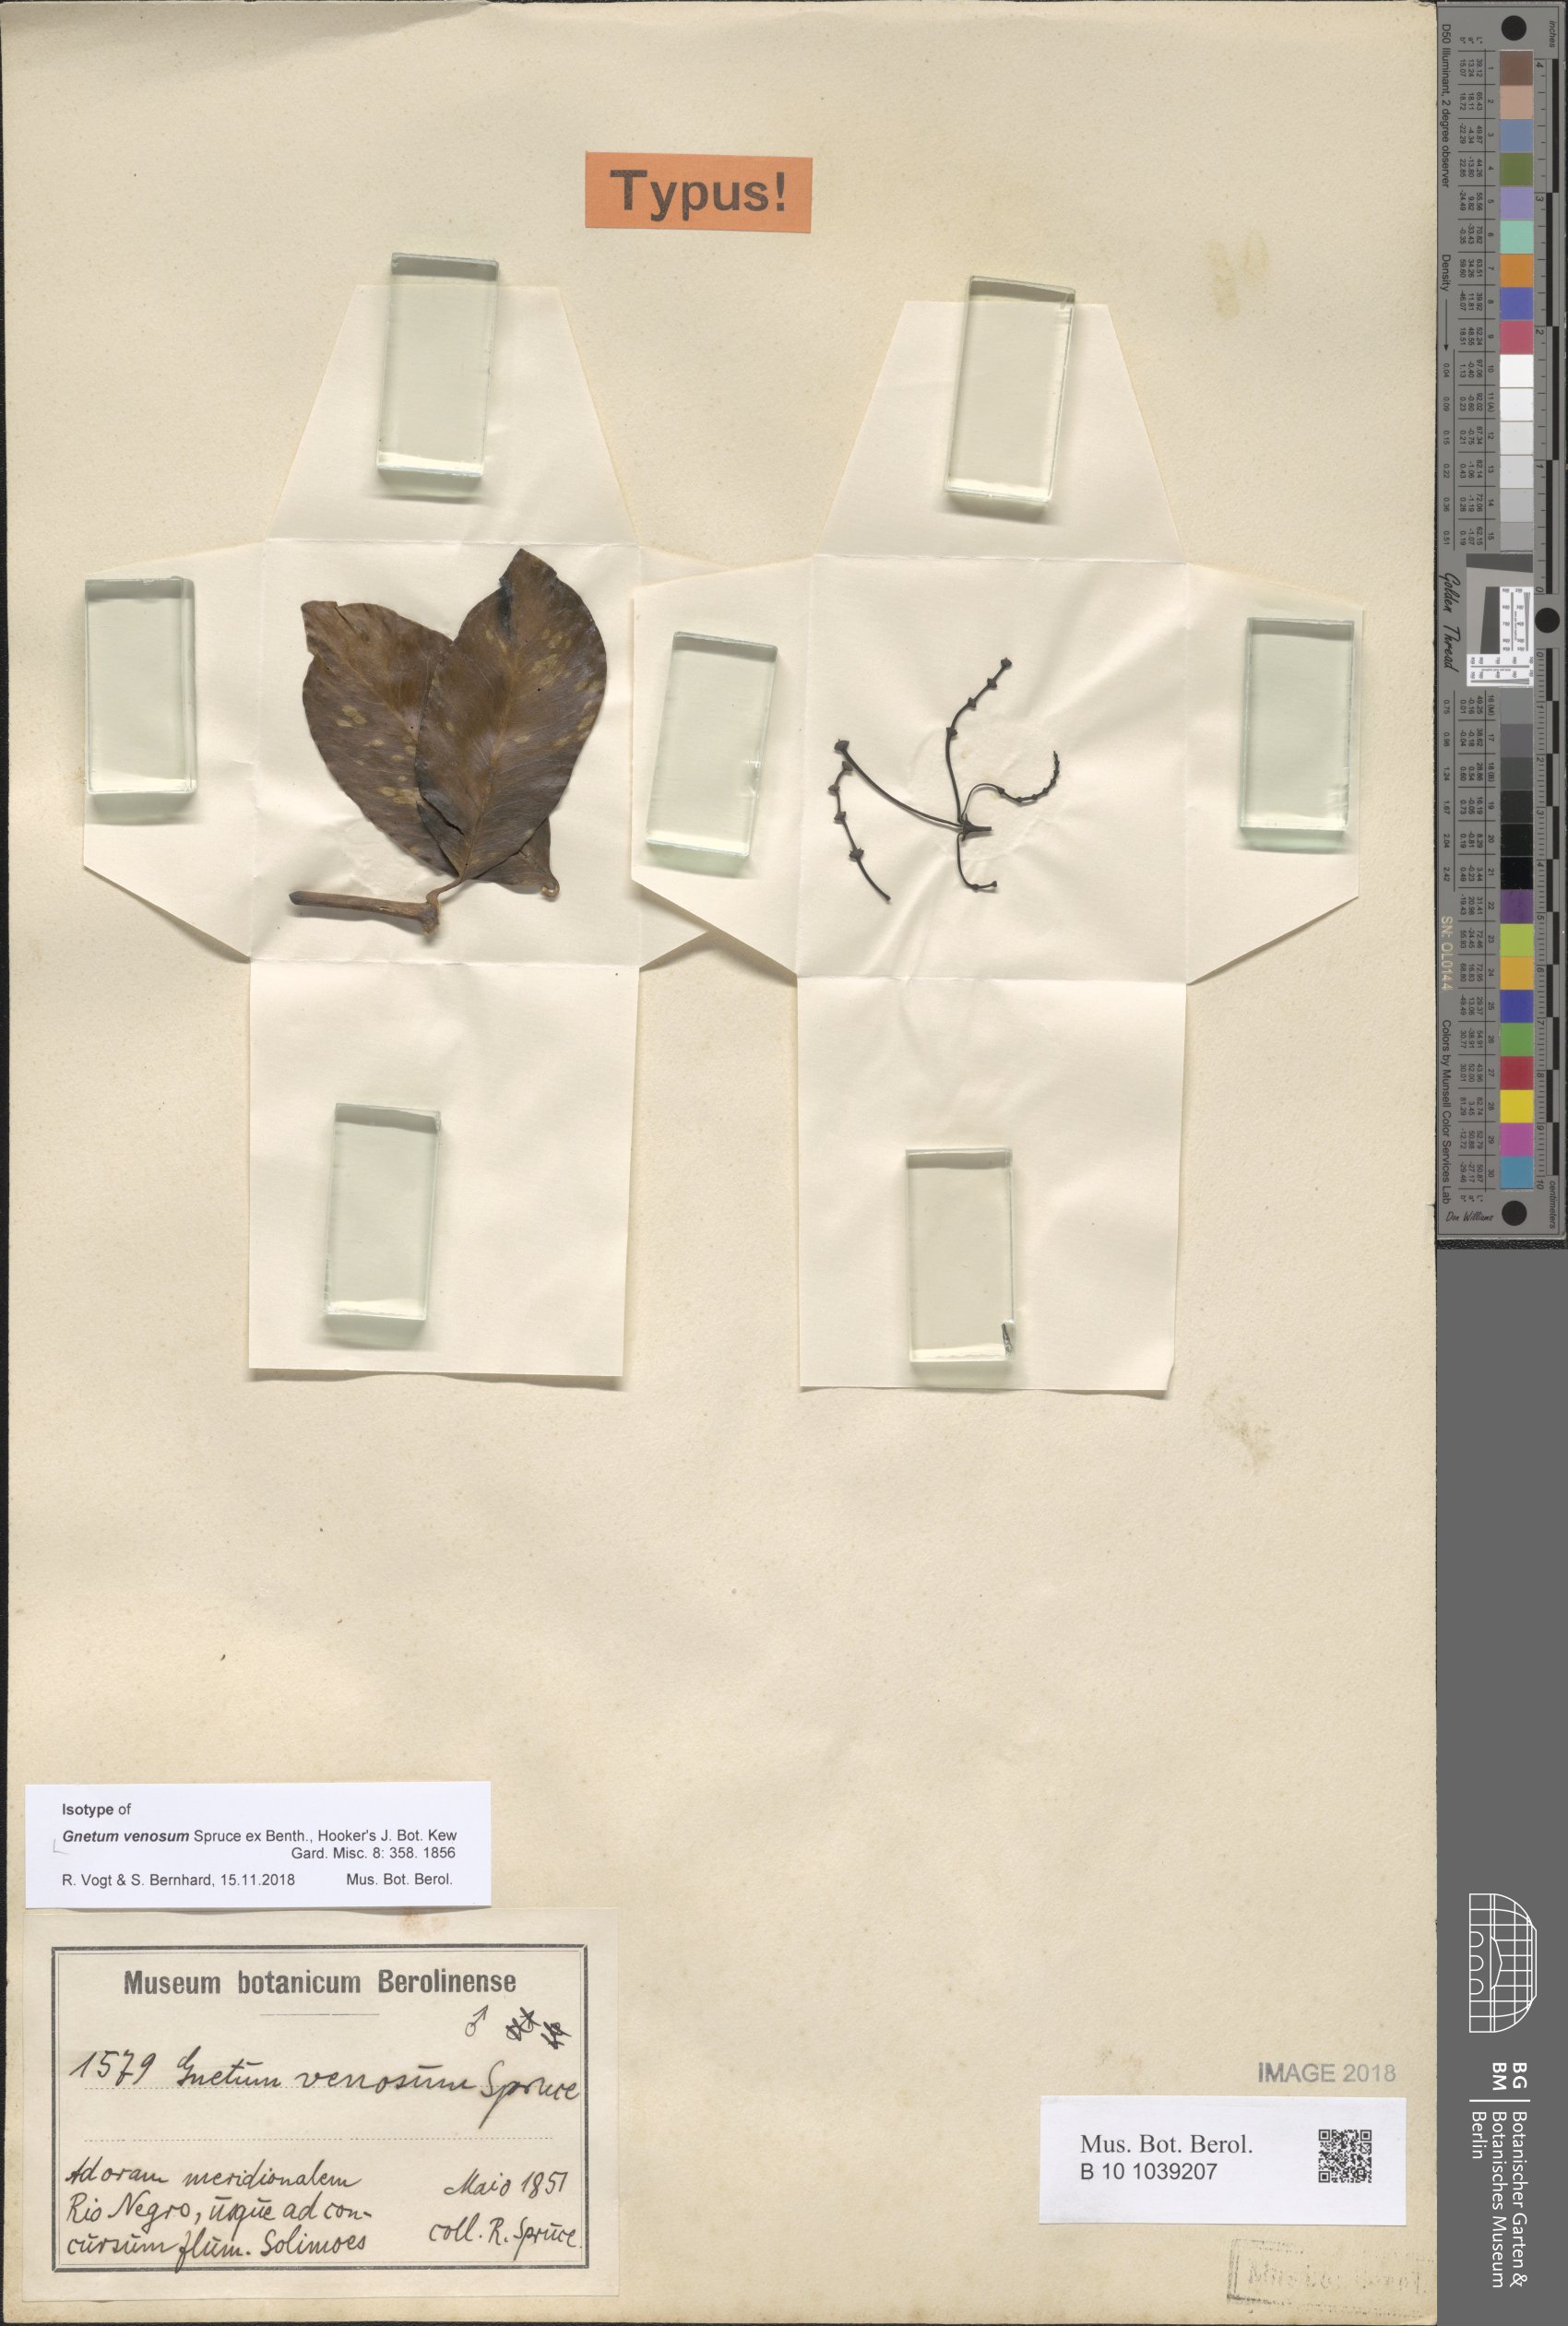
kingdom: Plantae
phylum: Tracheophyta
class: Gnetopsida
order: Gnetales
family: Gnetaceae
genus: Gnetum
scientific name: Gnetum venosum
